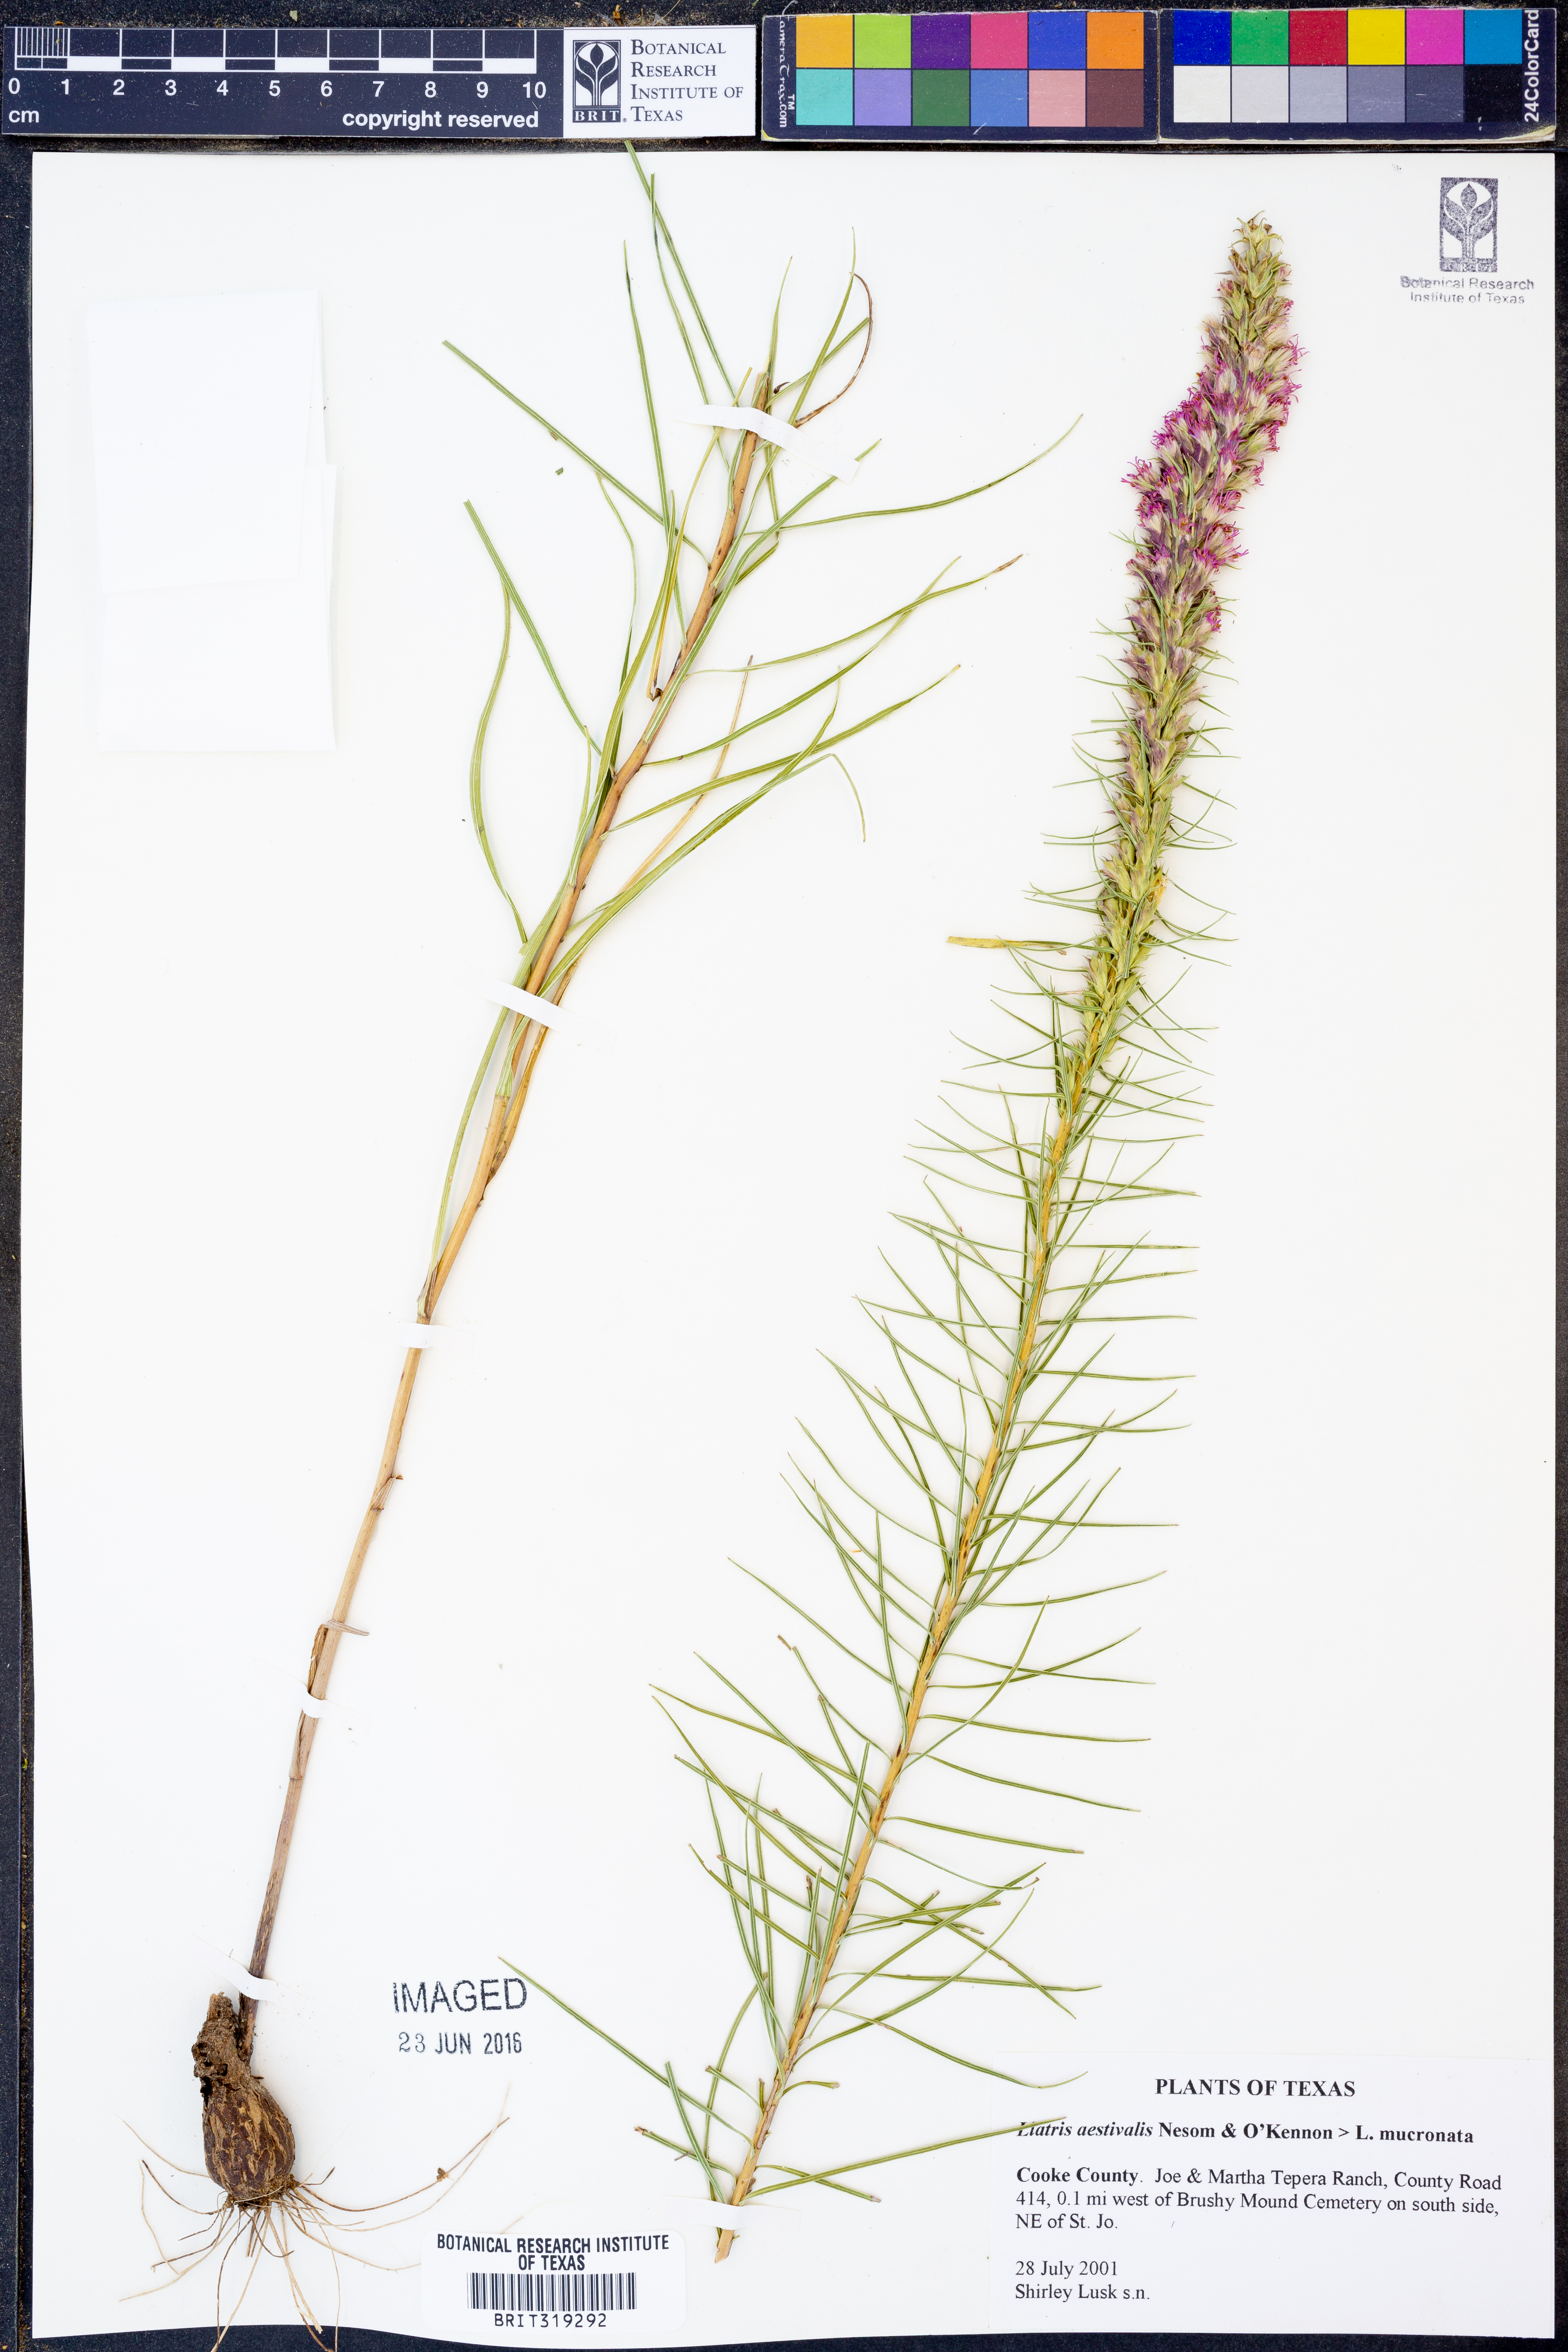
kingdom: Plantae
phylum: Tracheophyta
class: Magnoliopsida
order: Asterales
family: Asteraceae
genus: Liatris
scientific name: Liatris aestivalis
